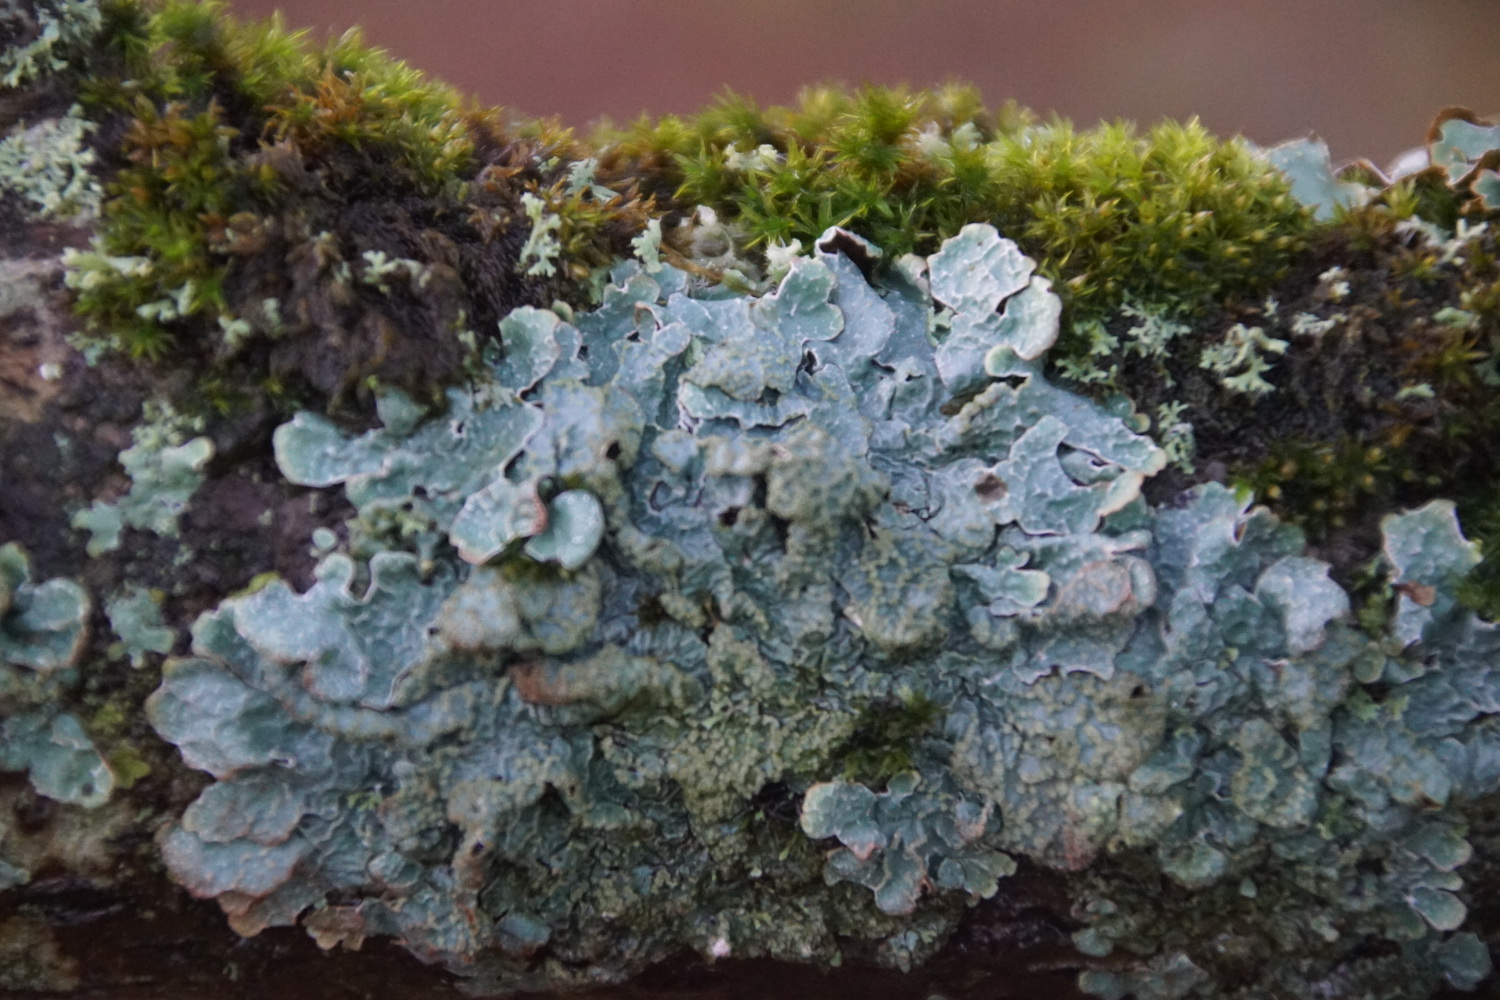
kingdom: Fungi
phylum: Ascomycota
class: Lecanoromycetes
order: Lecanorales
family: Parmeliaceae
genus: Parmelia
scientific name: Parmelia sulcata
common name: rynket skållav
